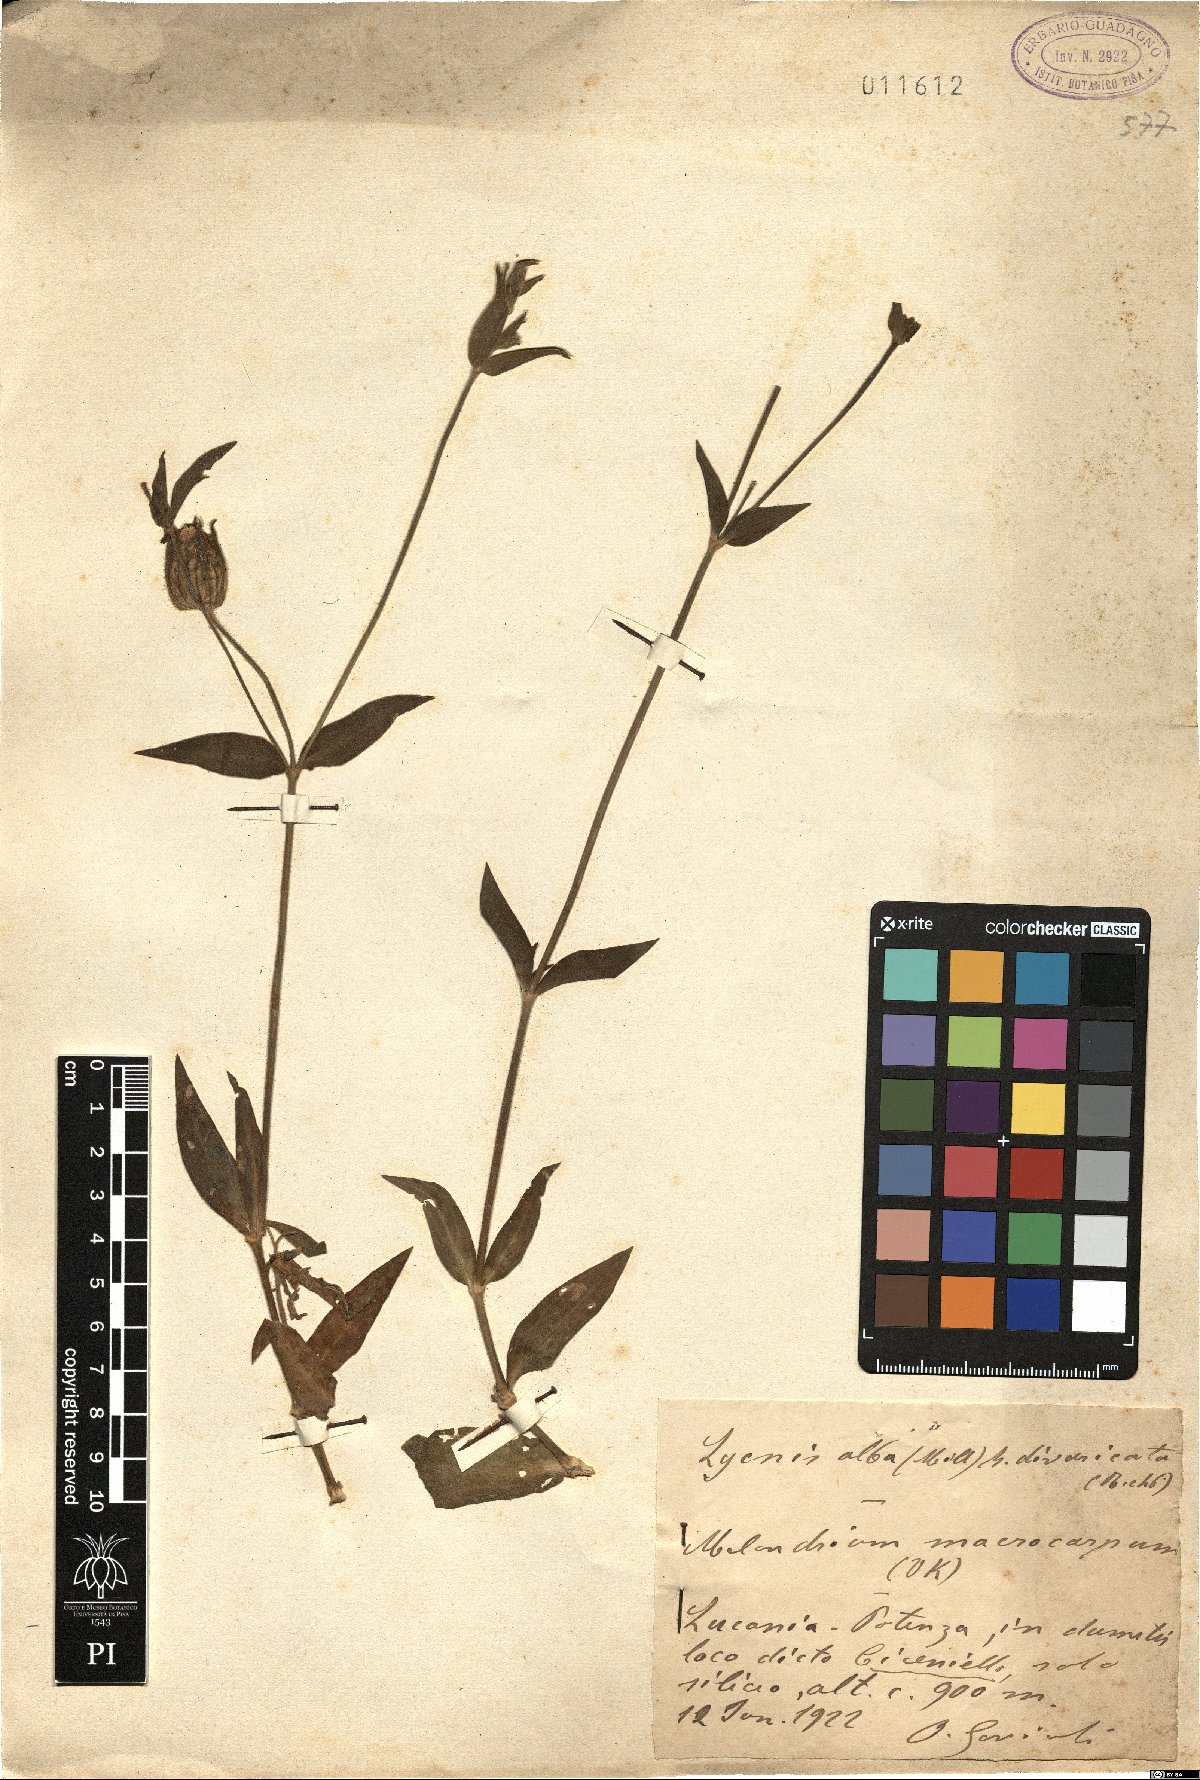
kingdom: Plantae
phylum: Tracheophyta
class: Magnoliopsida
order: Caryophyllales
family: Caryophyllaceae
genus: Silene
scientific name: Silene latifolia
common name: White campion
